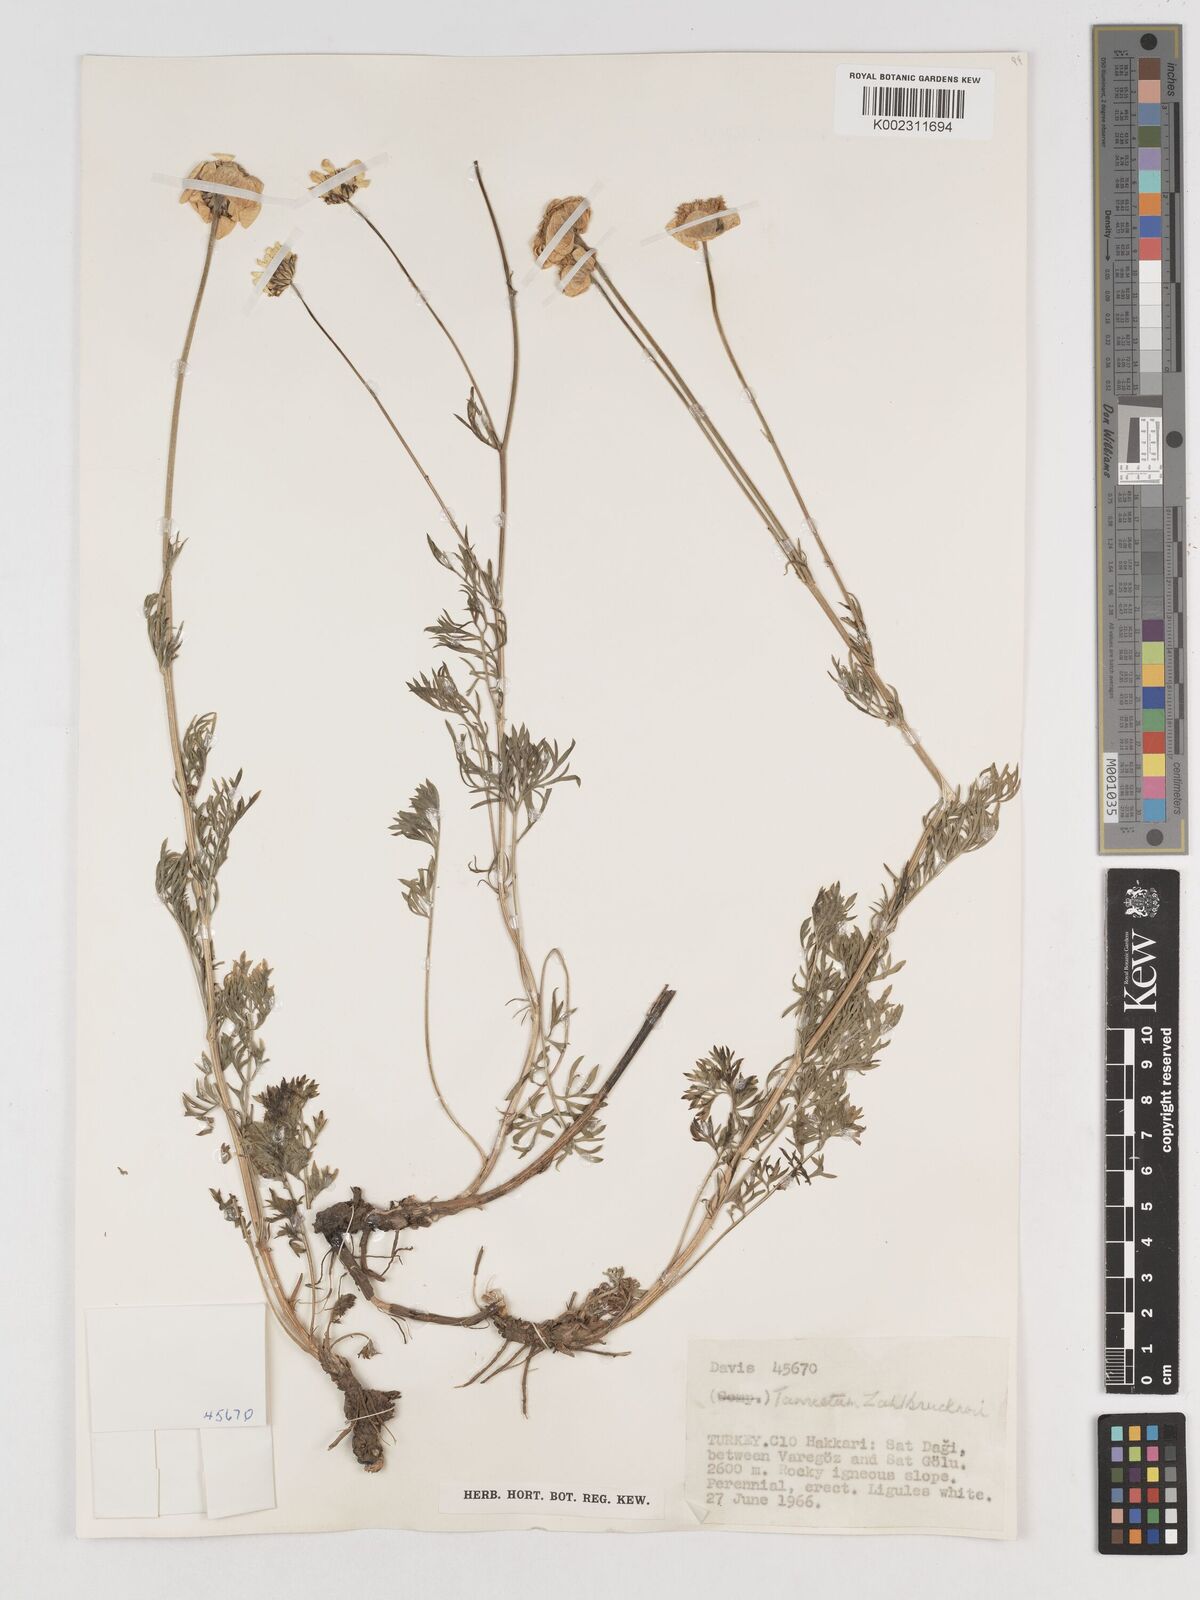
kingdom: Plantae
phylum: Tracheophyta
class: Magnoliopsida
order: Asterales
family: Asteraceae
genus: Tanacetum
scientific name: Tanacetum zahlbruckneri
